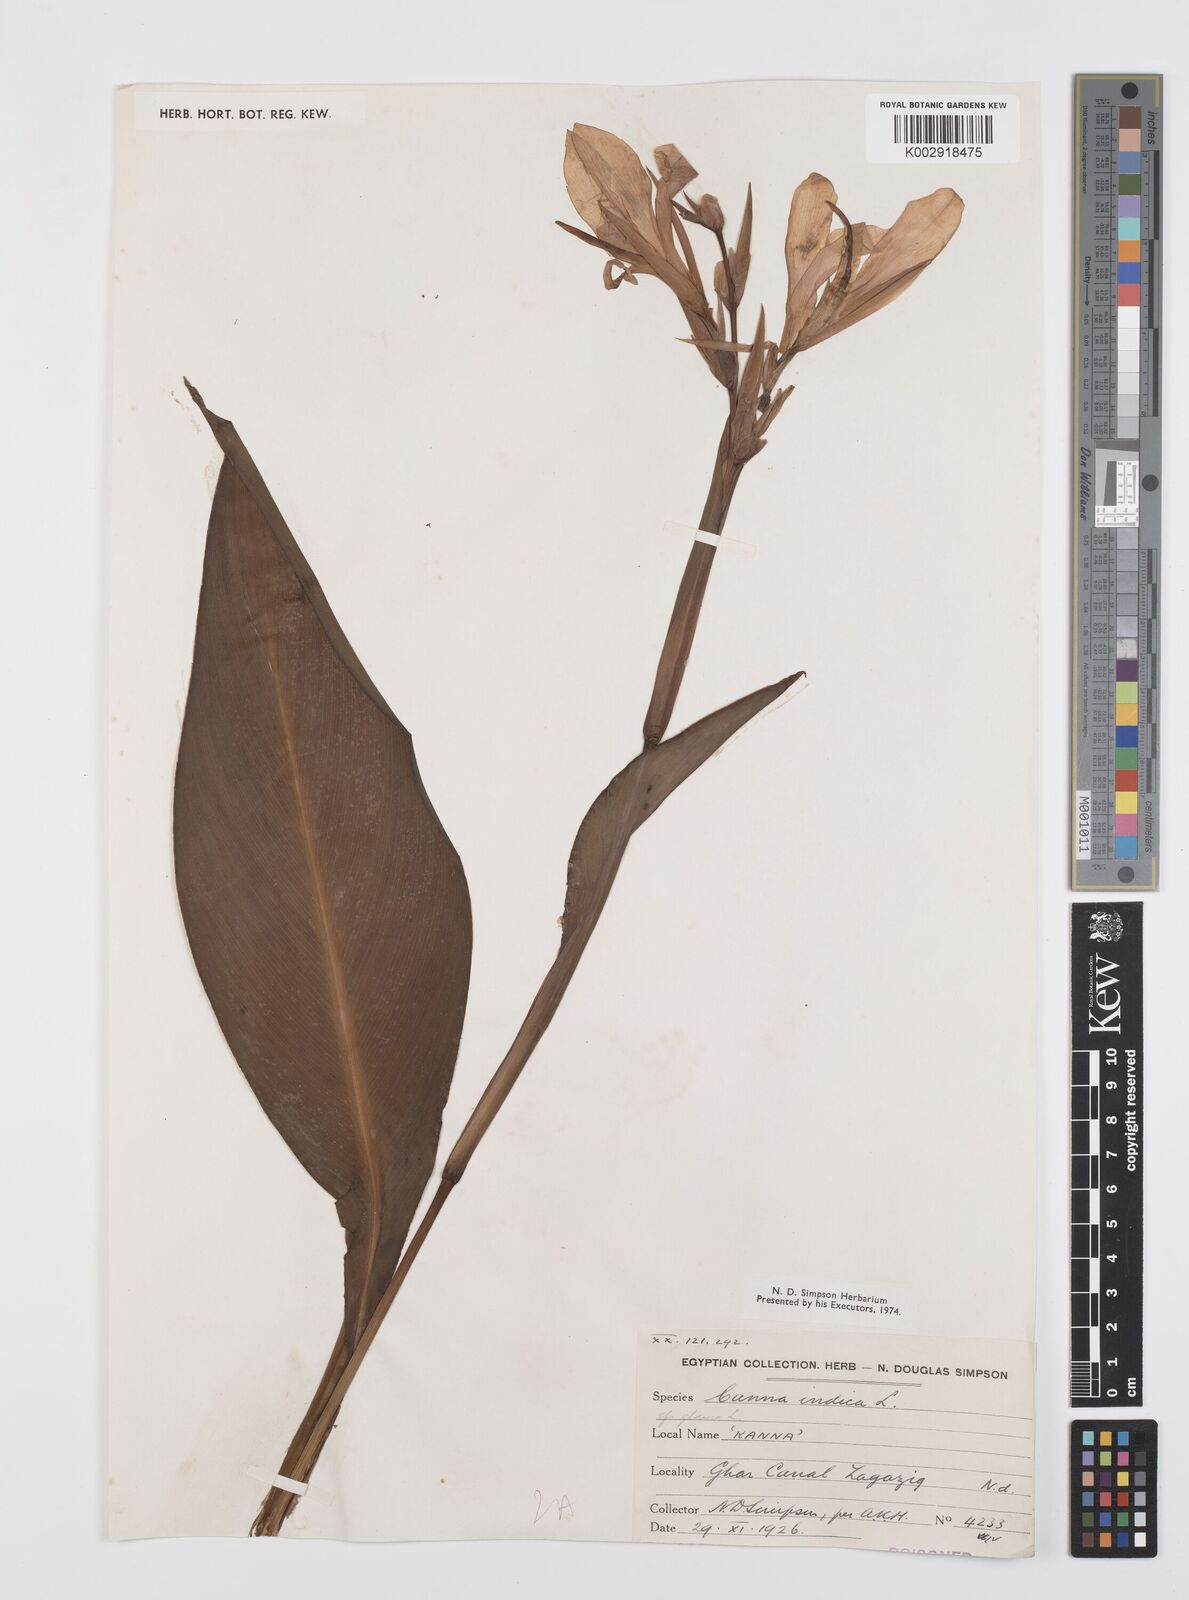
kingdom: Plantae
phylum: Tracheophyta
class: Liliopsida
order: Zingiberales
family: Cannaceae
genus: Canna
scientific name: Canna indica
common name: Indian shot
